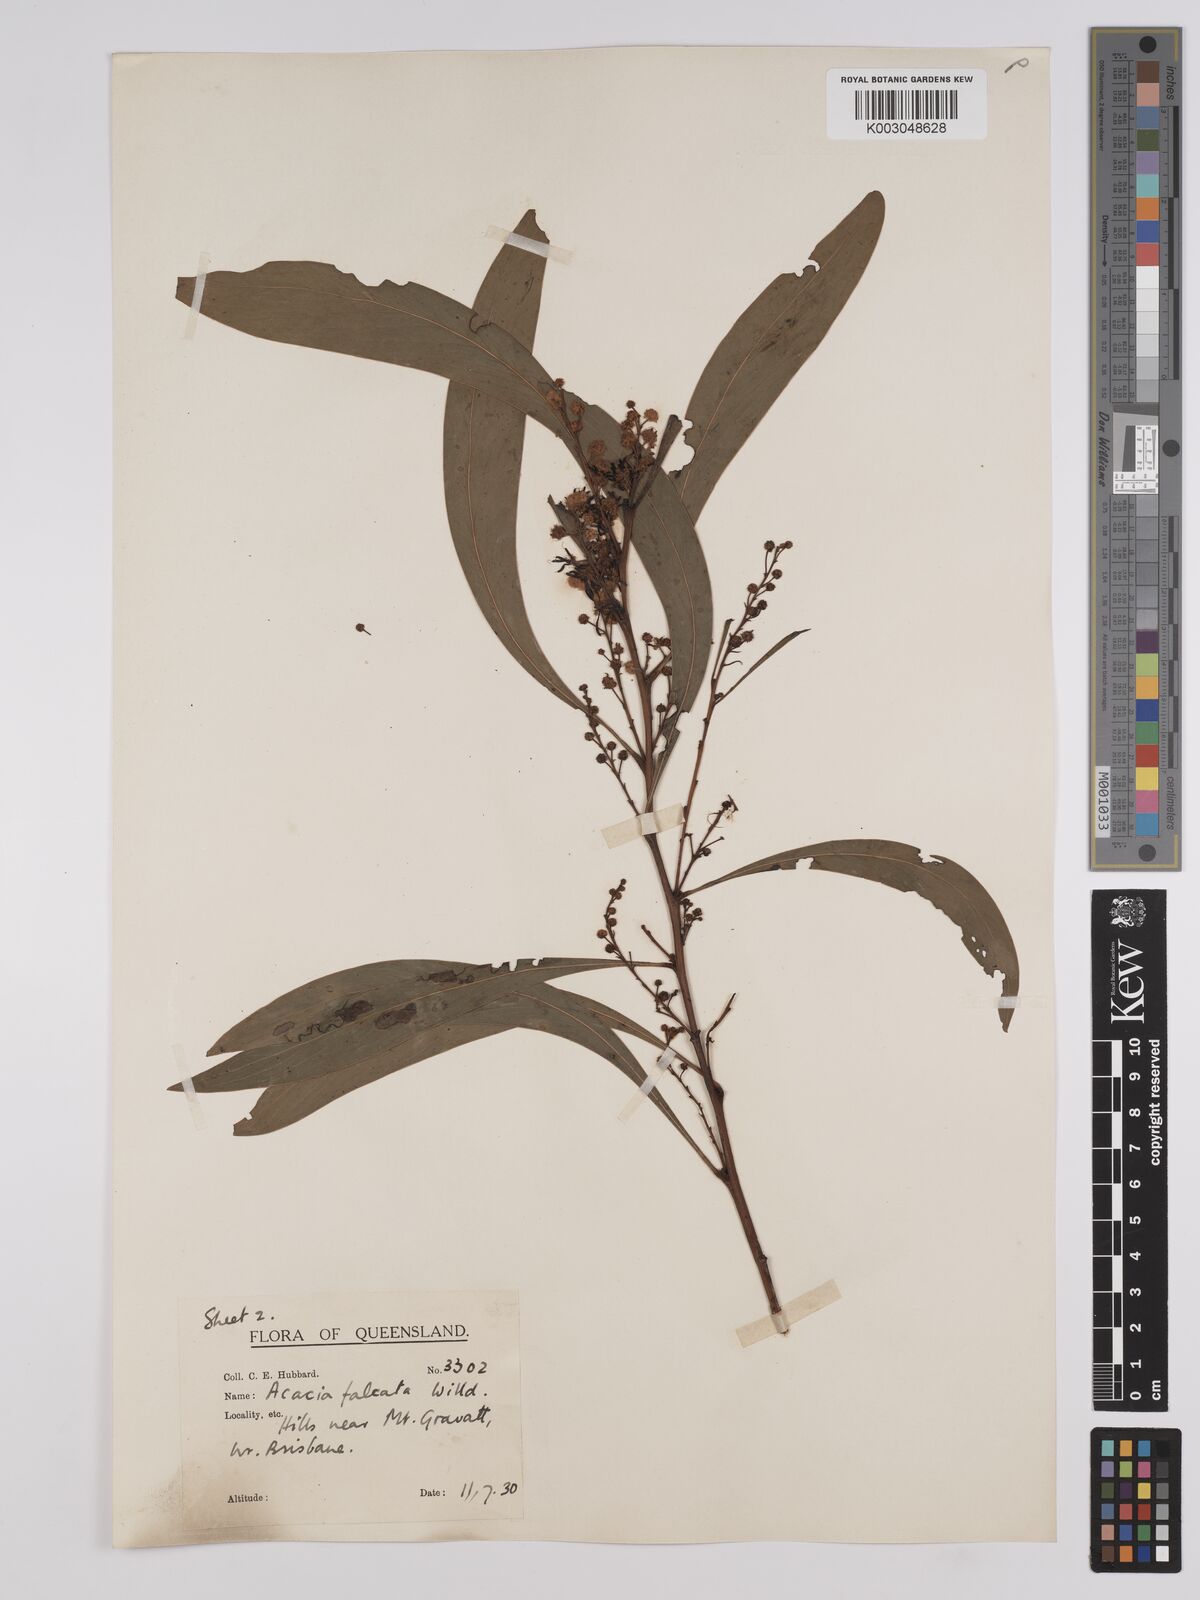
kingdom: Plantae
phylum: Tracheophyta
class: Magnoliopsida
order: Fabales
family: Fabaceae
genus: Acacia
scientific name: Acacia falcata
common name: Burra acacia
